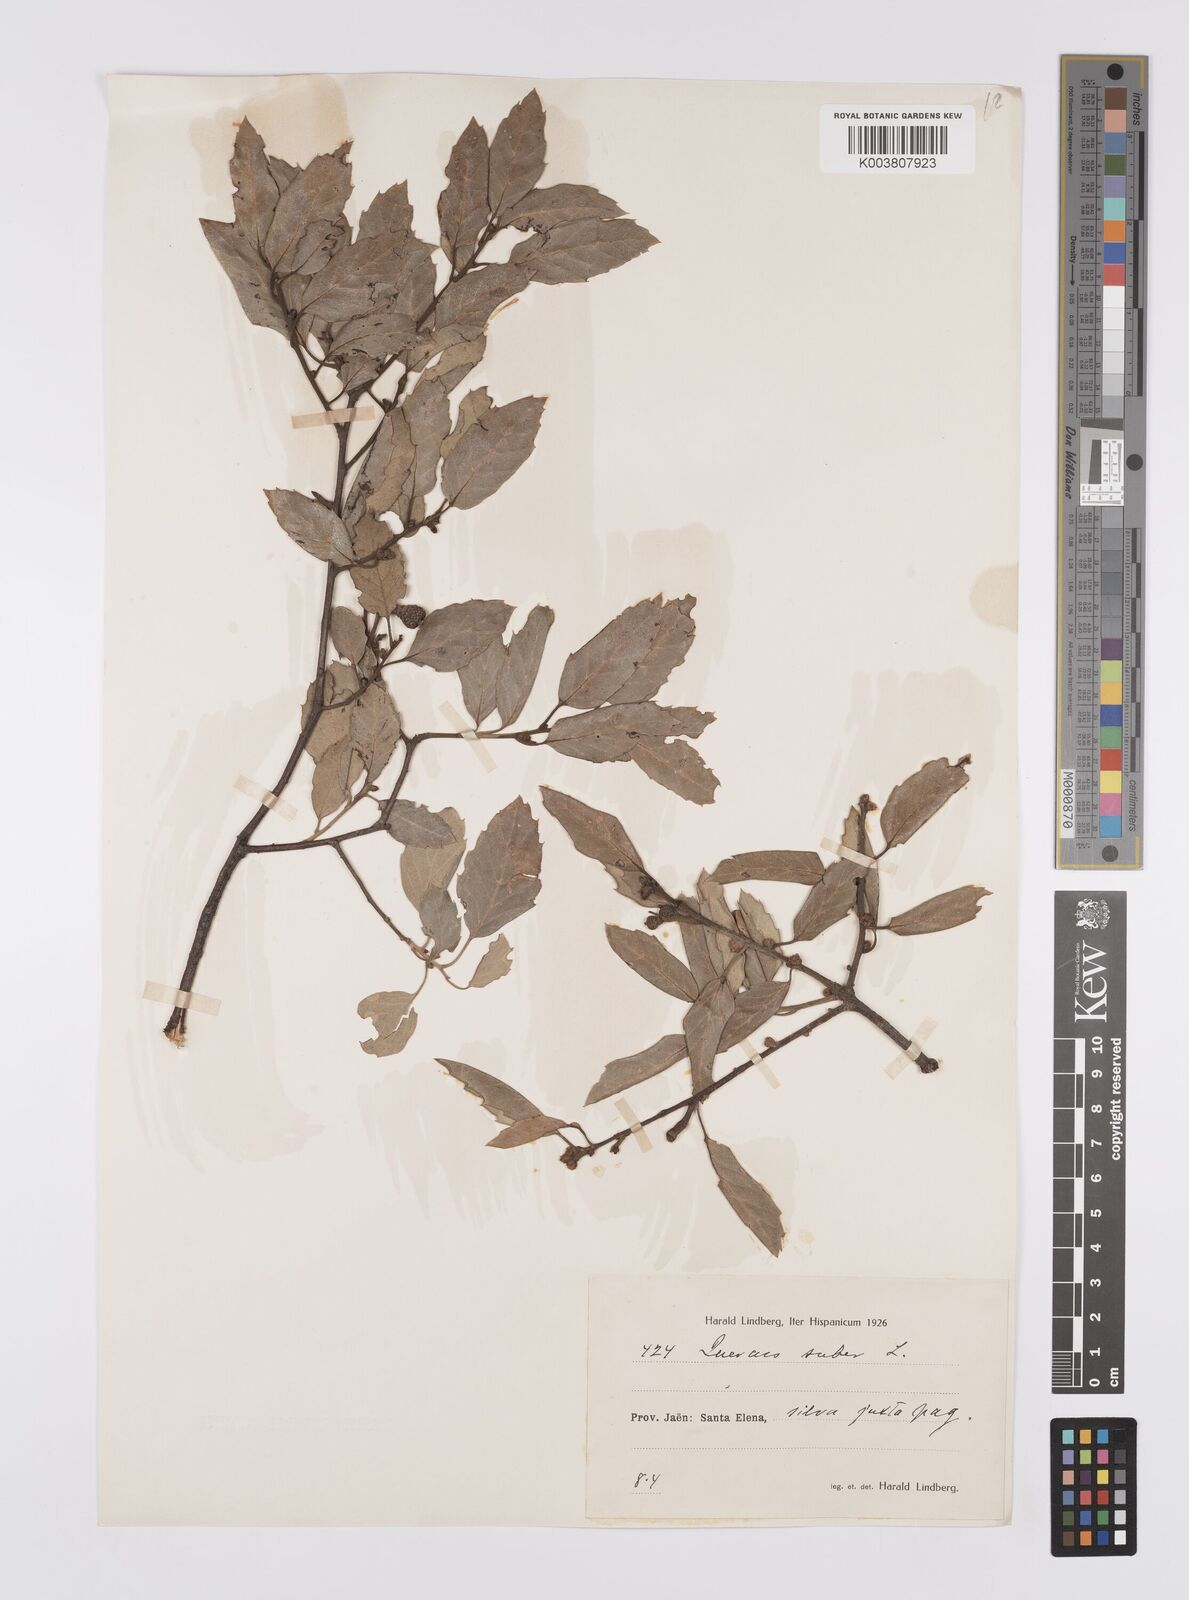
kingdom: Plantae
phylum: Tracheophyta
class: Magnoliopsida
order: Fagales
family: Fagaceae
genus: Quercus
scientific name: Quercus suber
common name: Cork oak
